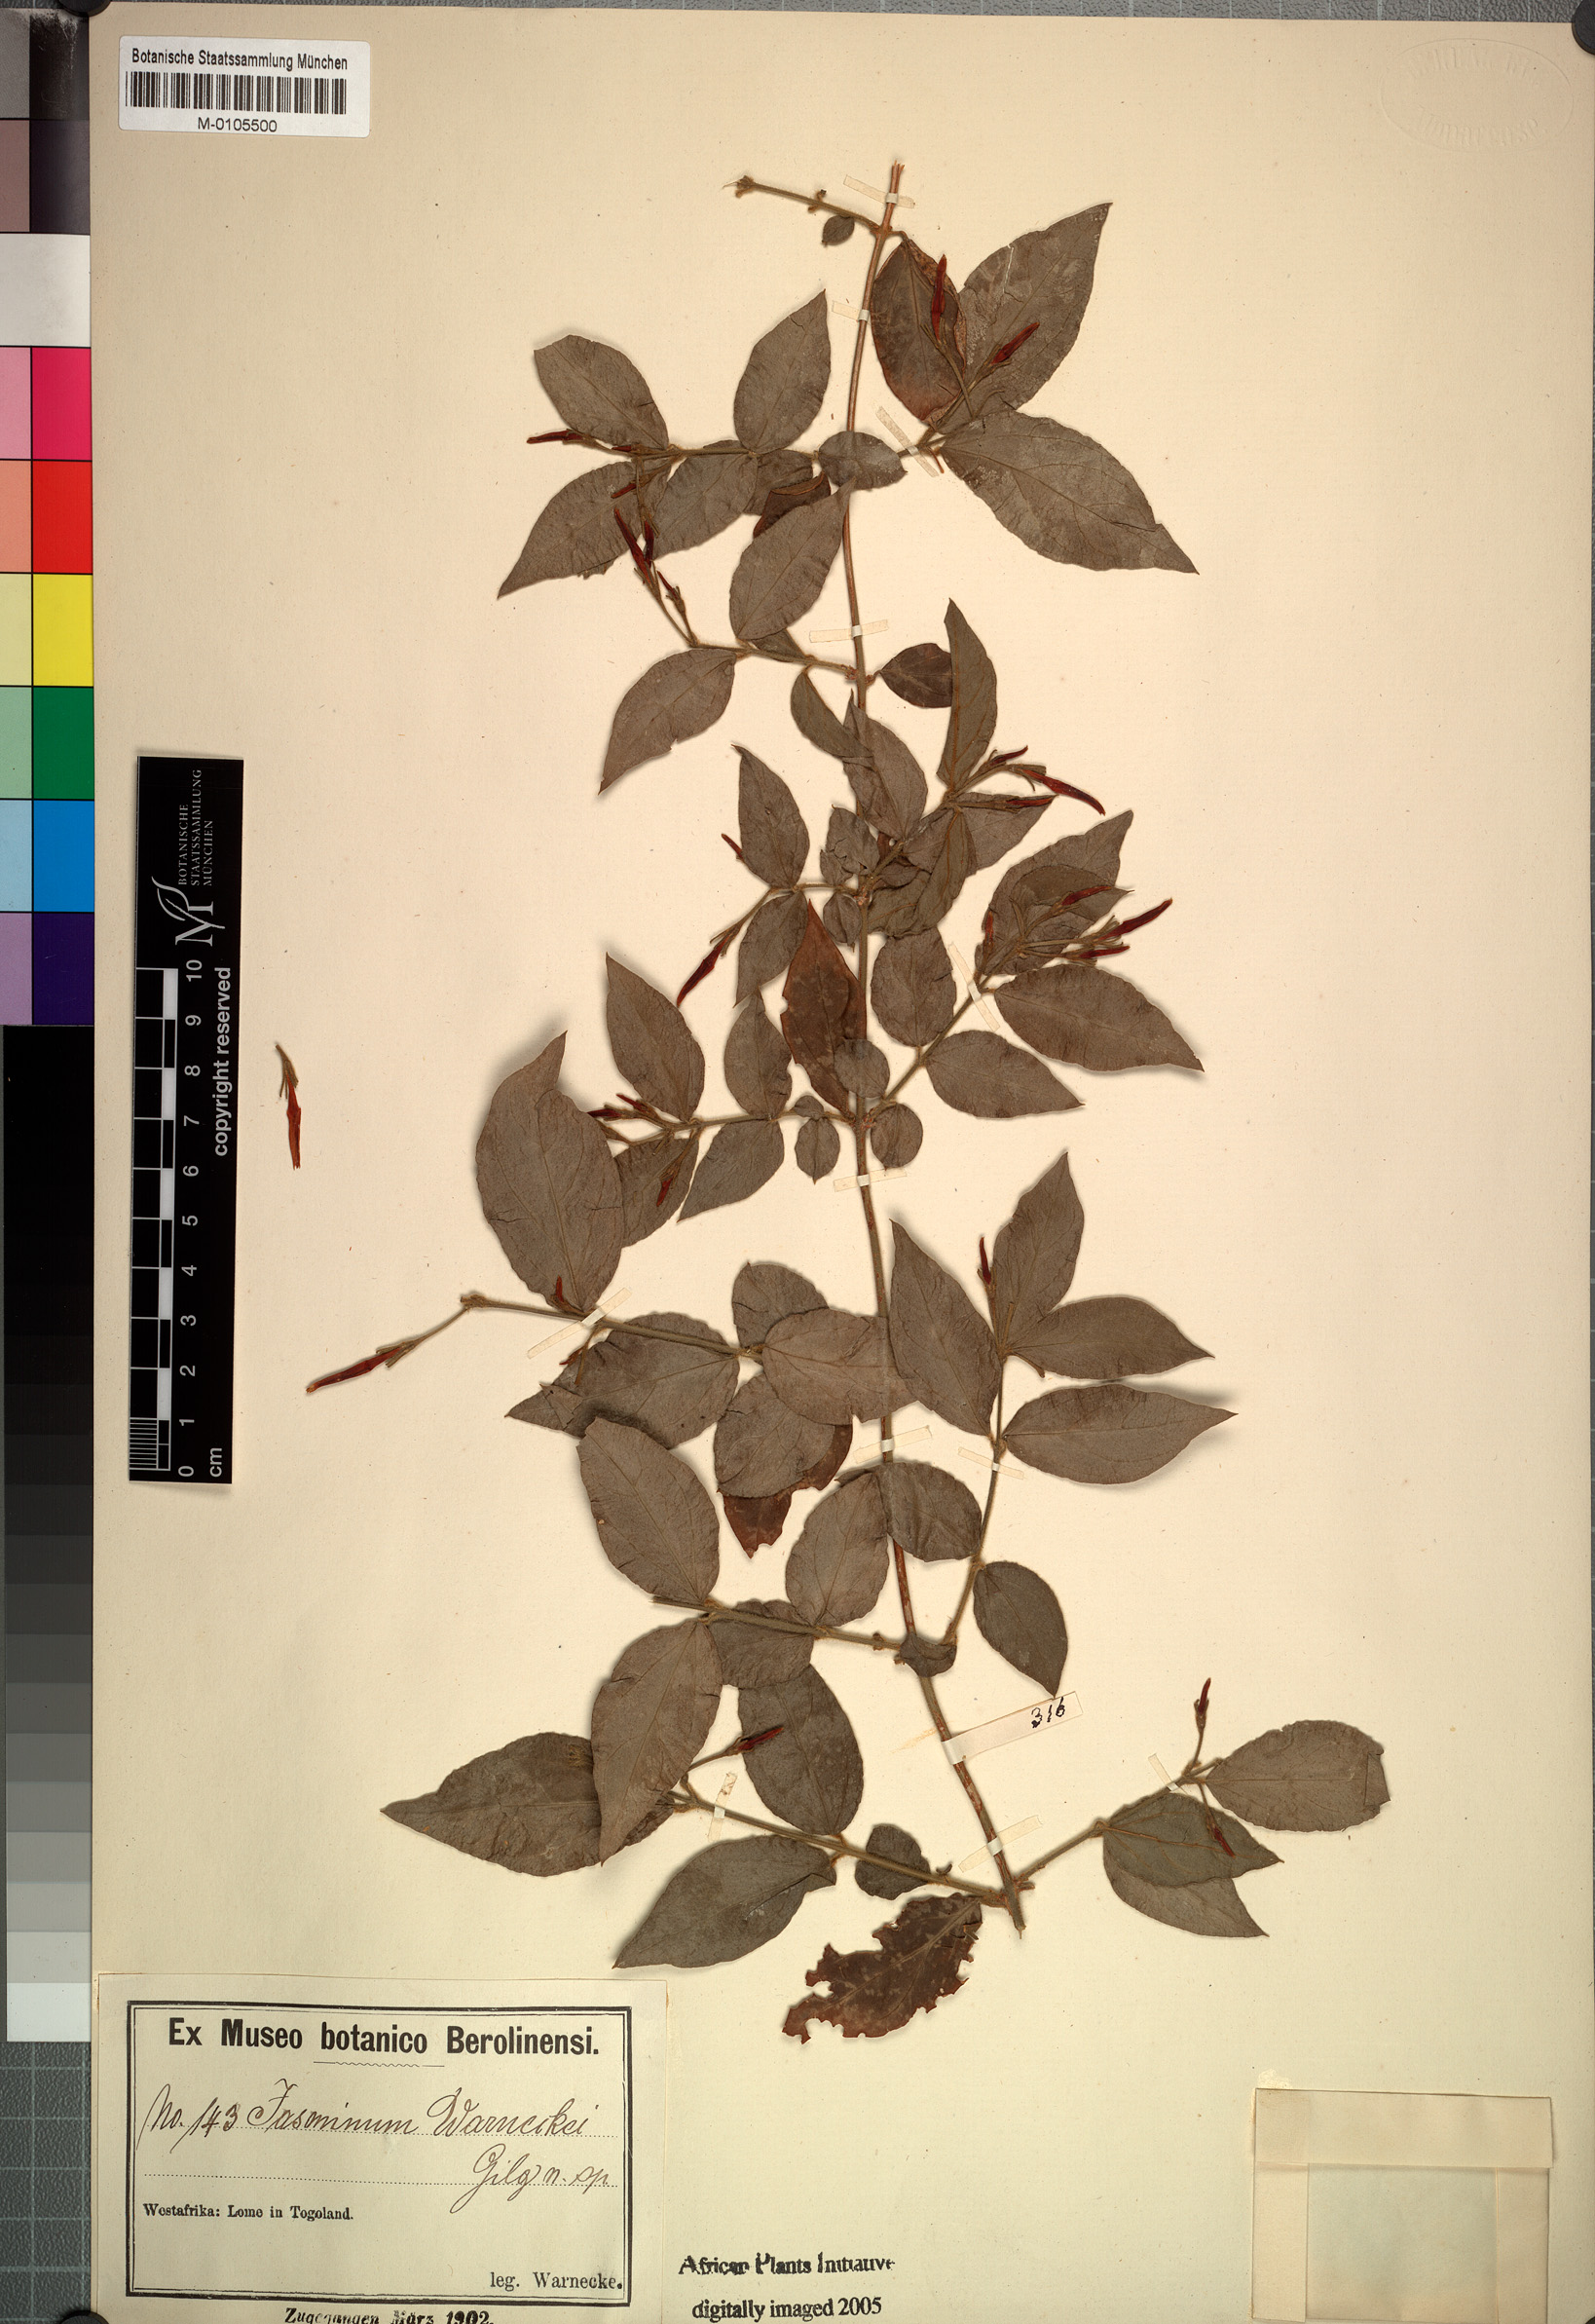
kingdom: Plantae
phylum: Tracheophyta
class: Magnoliopsida
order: Lamiales
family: Oleaceae
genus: Jasminum
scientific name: Jasminum pauciflorum
